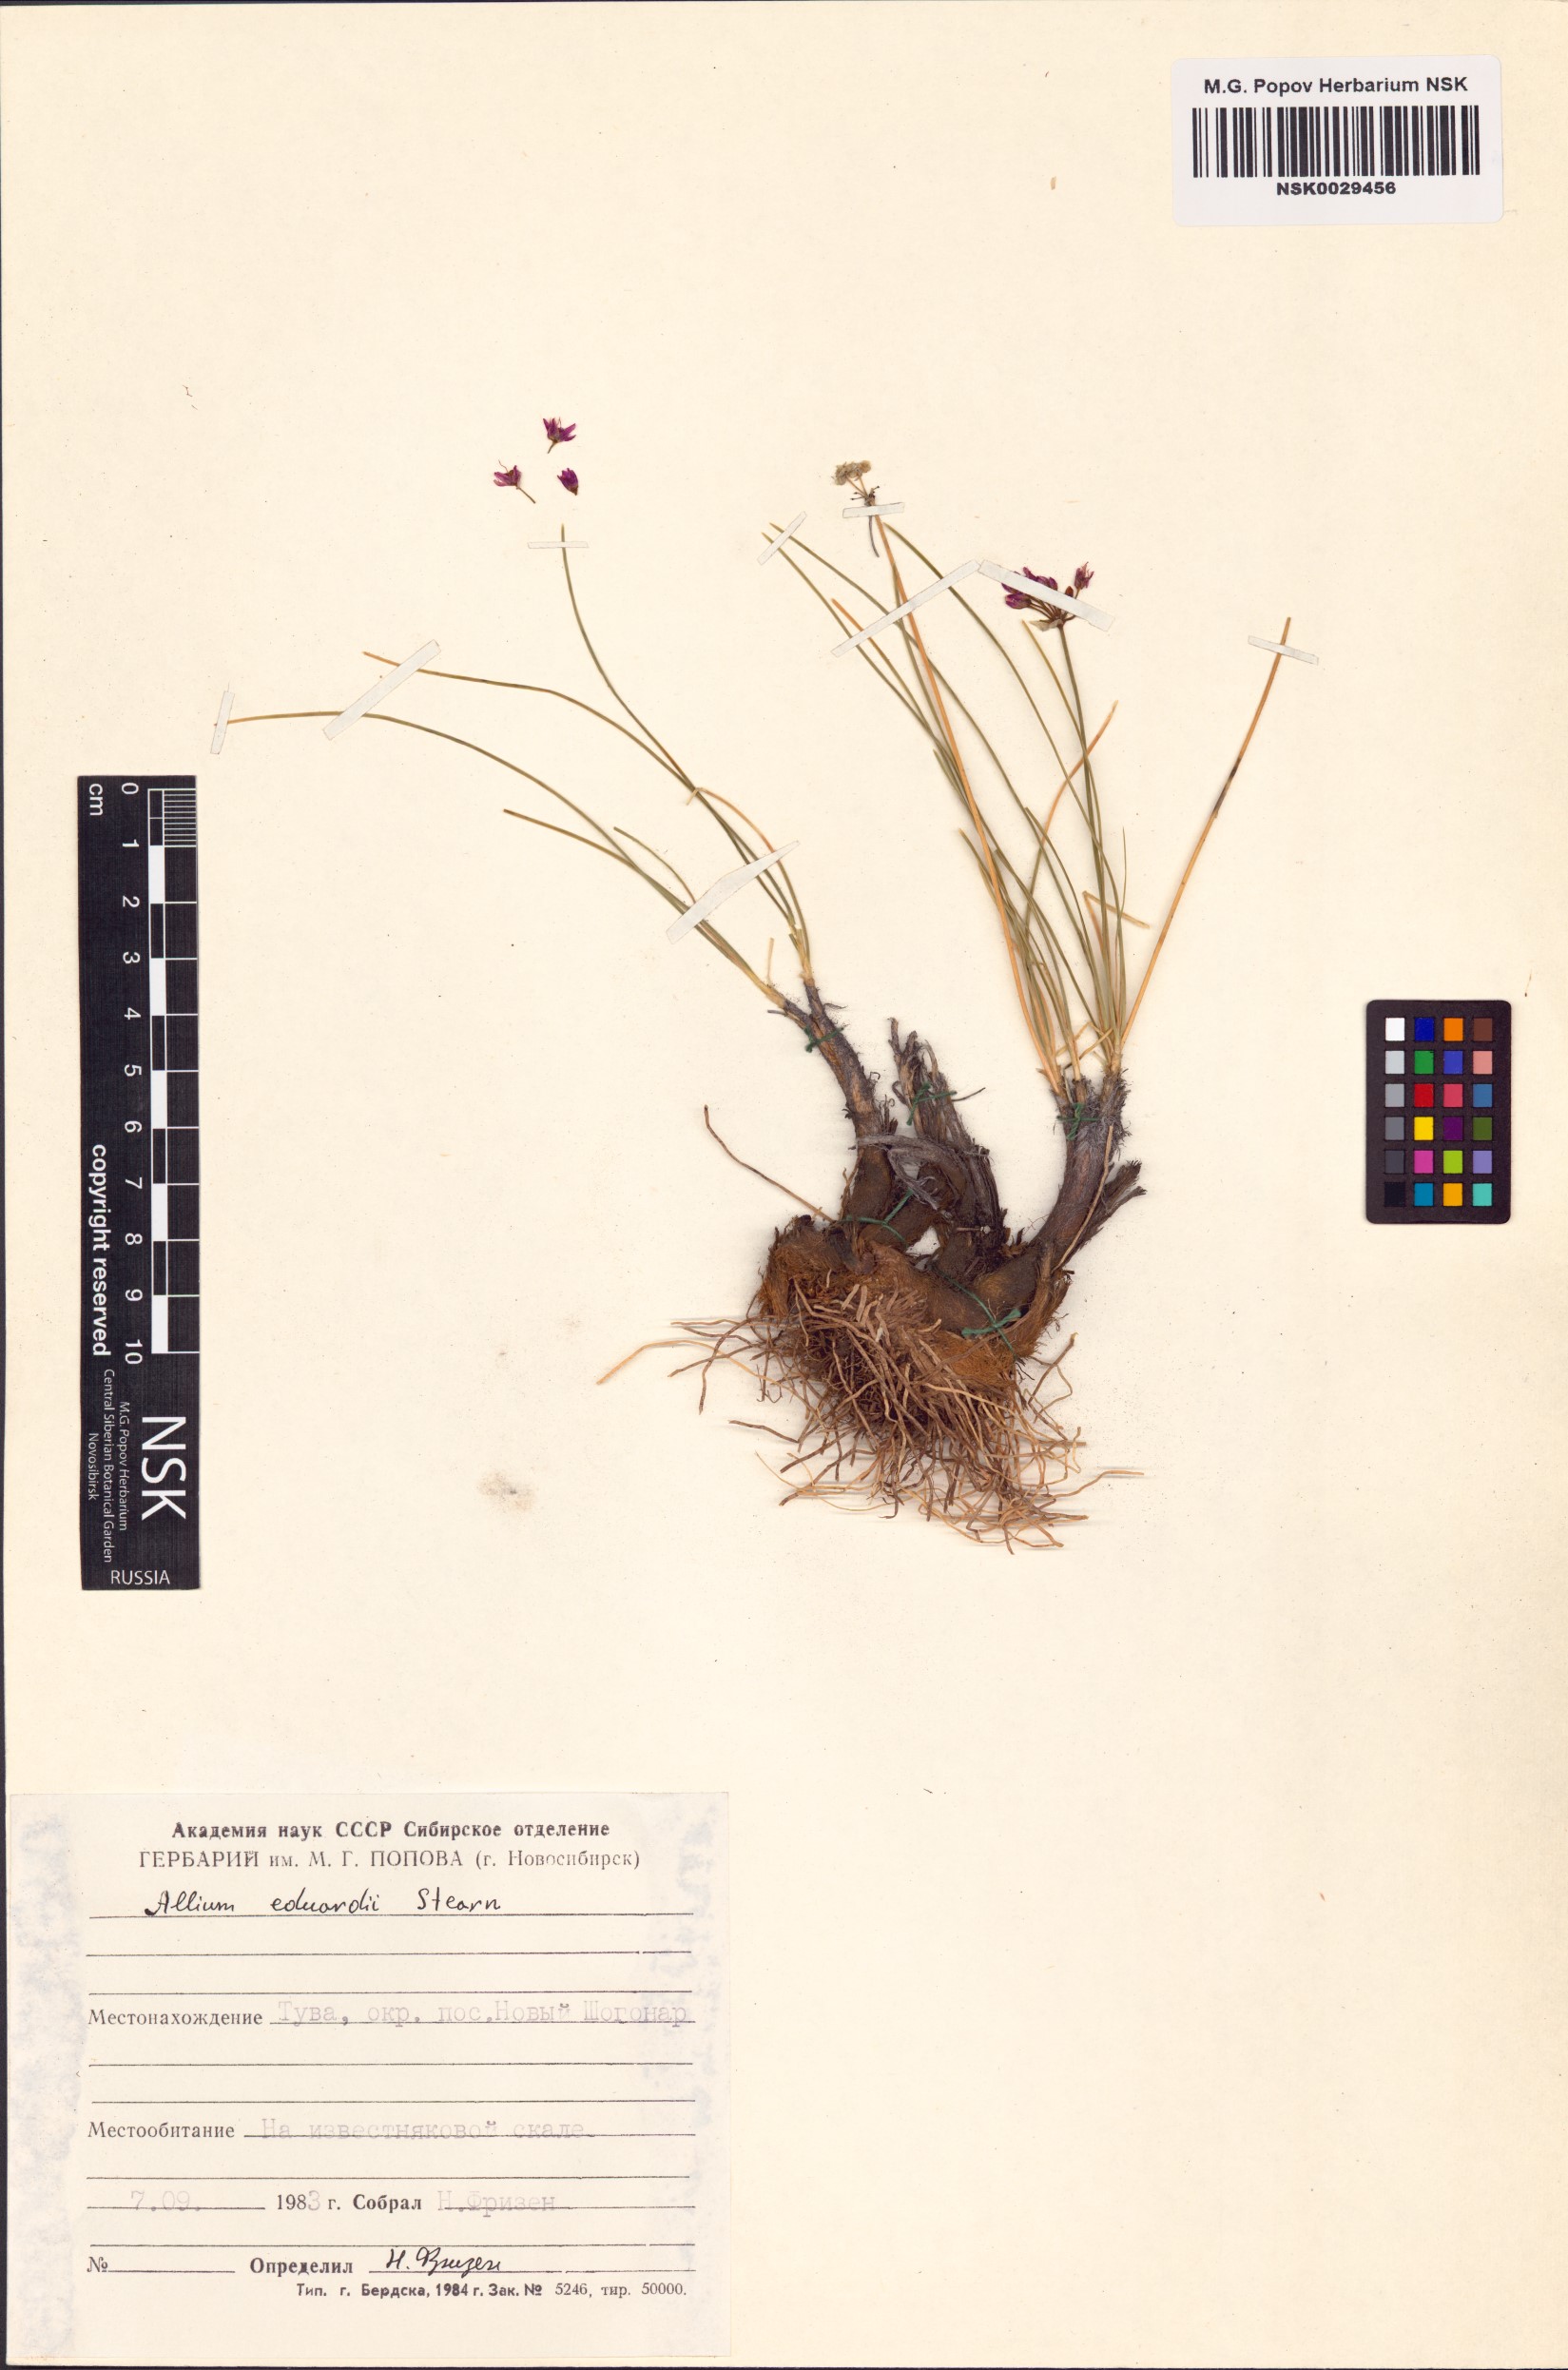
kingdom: Plantae
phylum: Tracheophyta
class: Liliopsida
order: Asparagales
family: Amaryllidaceae
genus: Allium
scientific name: Allium eduardi
